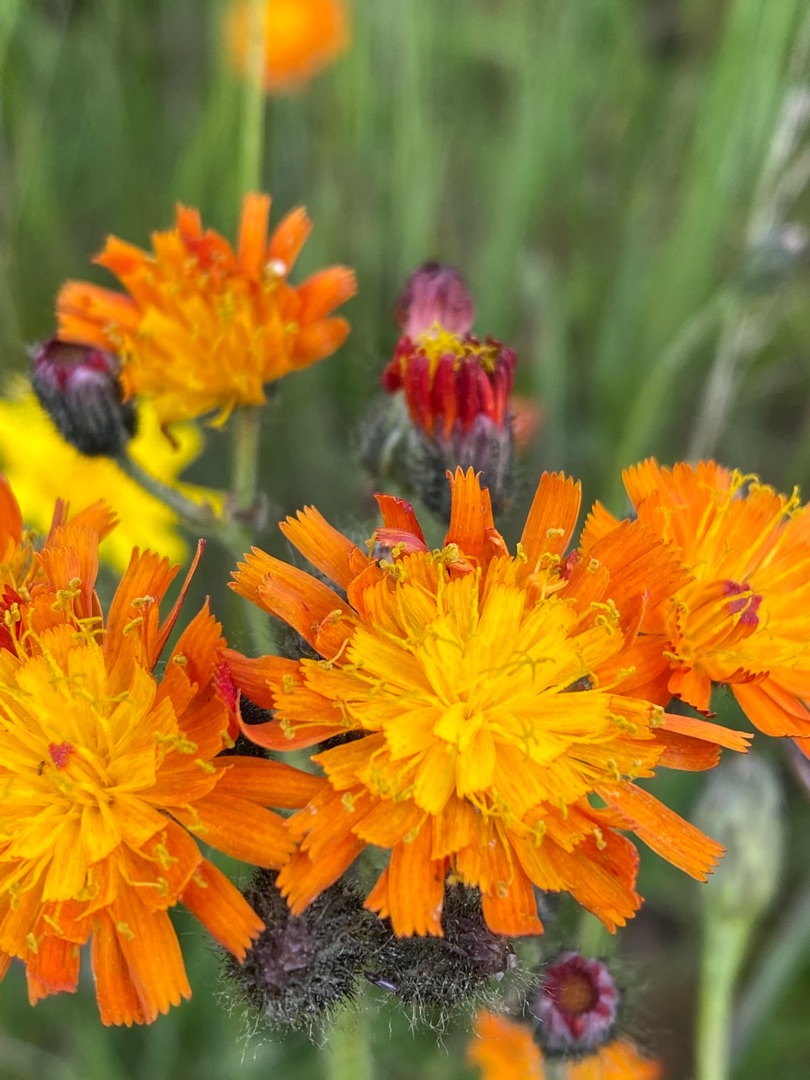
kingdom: Plantae
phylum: Tracheophyta
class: Magnoliopsida
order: Asterales
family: Asteraceae
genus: Pilosella
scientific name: Pilosella aurantiaca
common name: Pomerans-høgeurt
